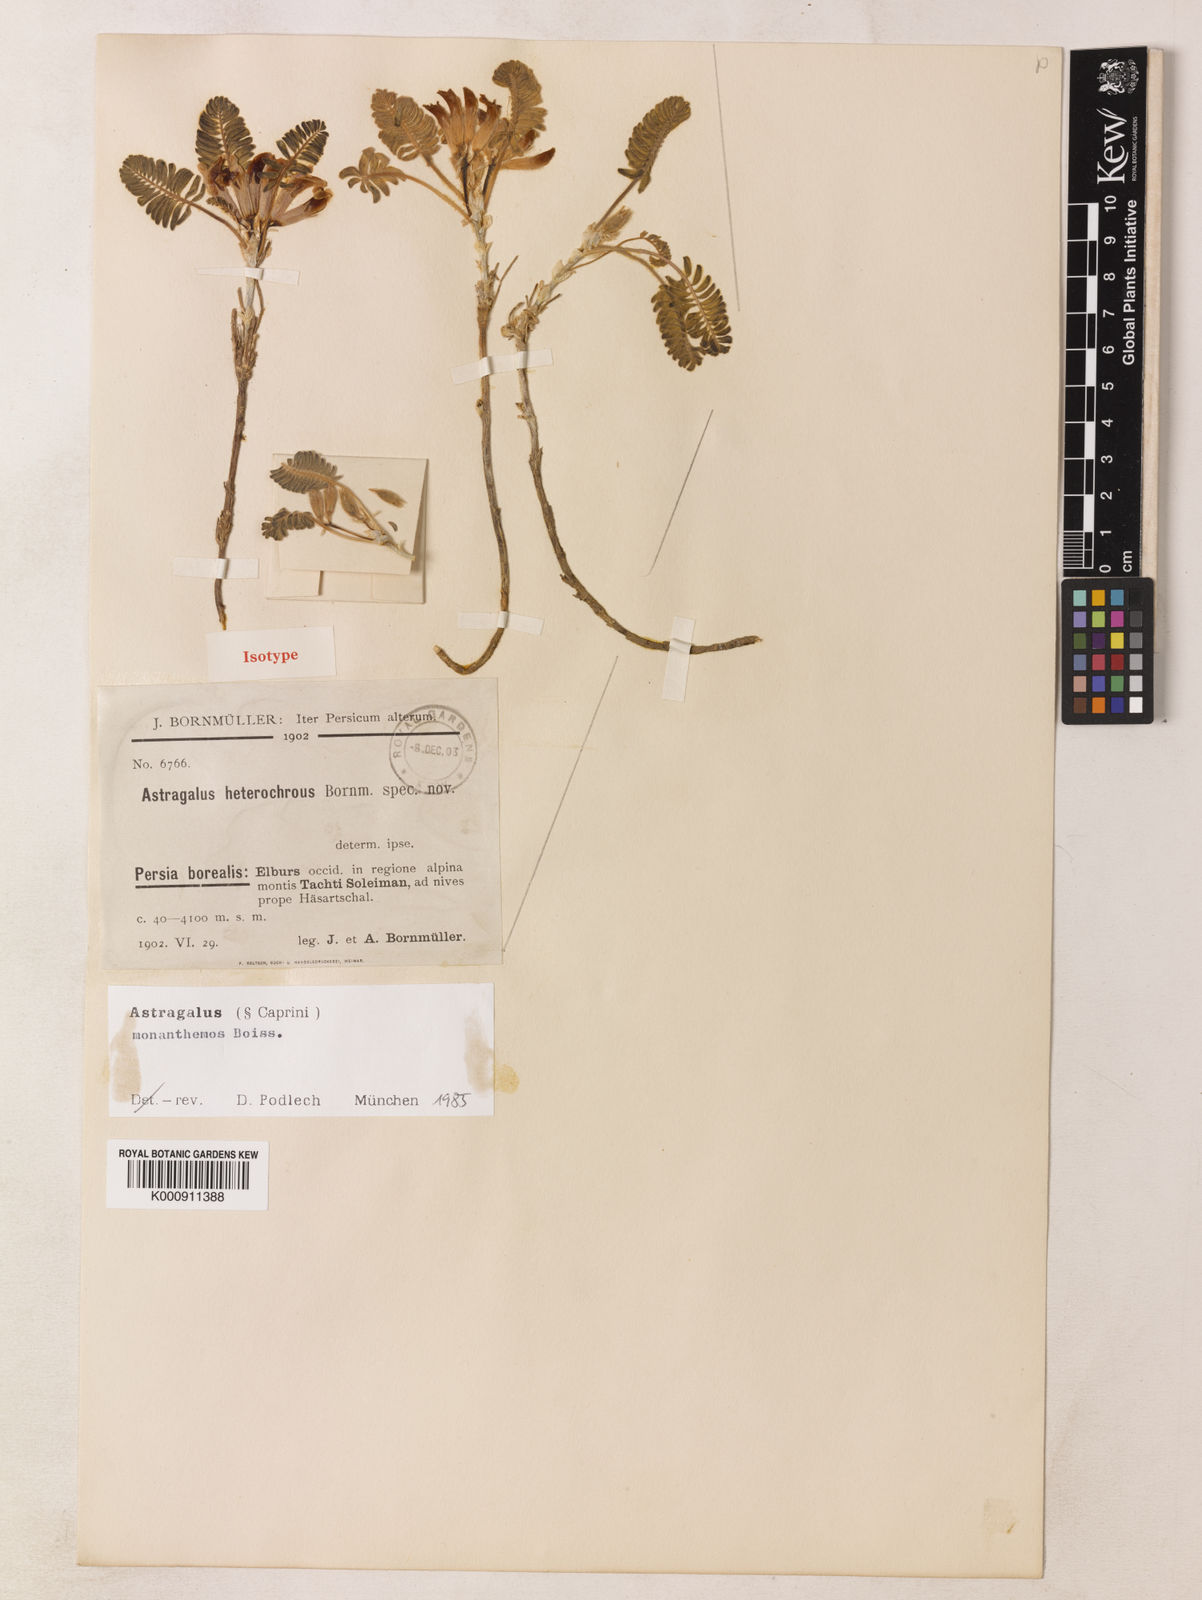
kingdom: Plantae
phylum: Tracheophyta
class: Magnoliopsida
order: Fabales
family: Fabaceae
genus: Astragalus
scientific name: Astragalus heterochrous
